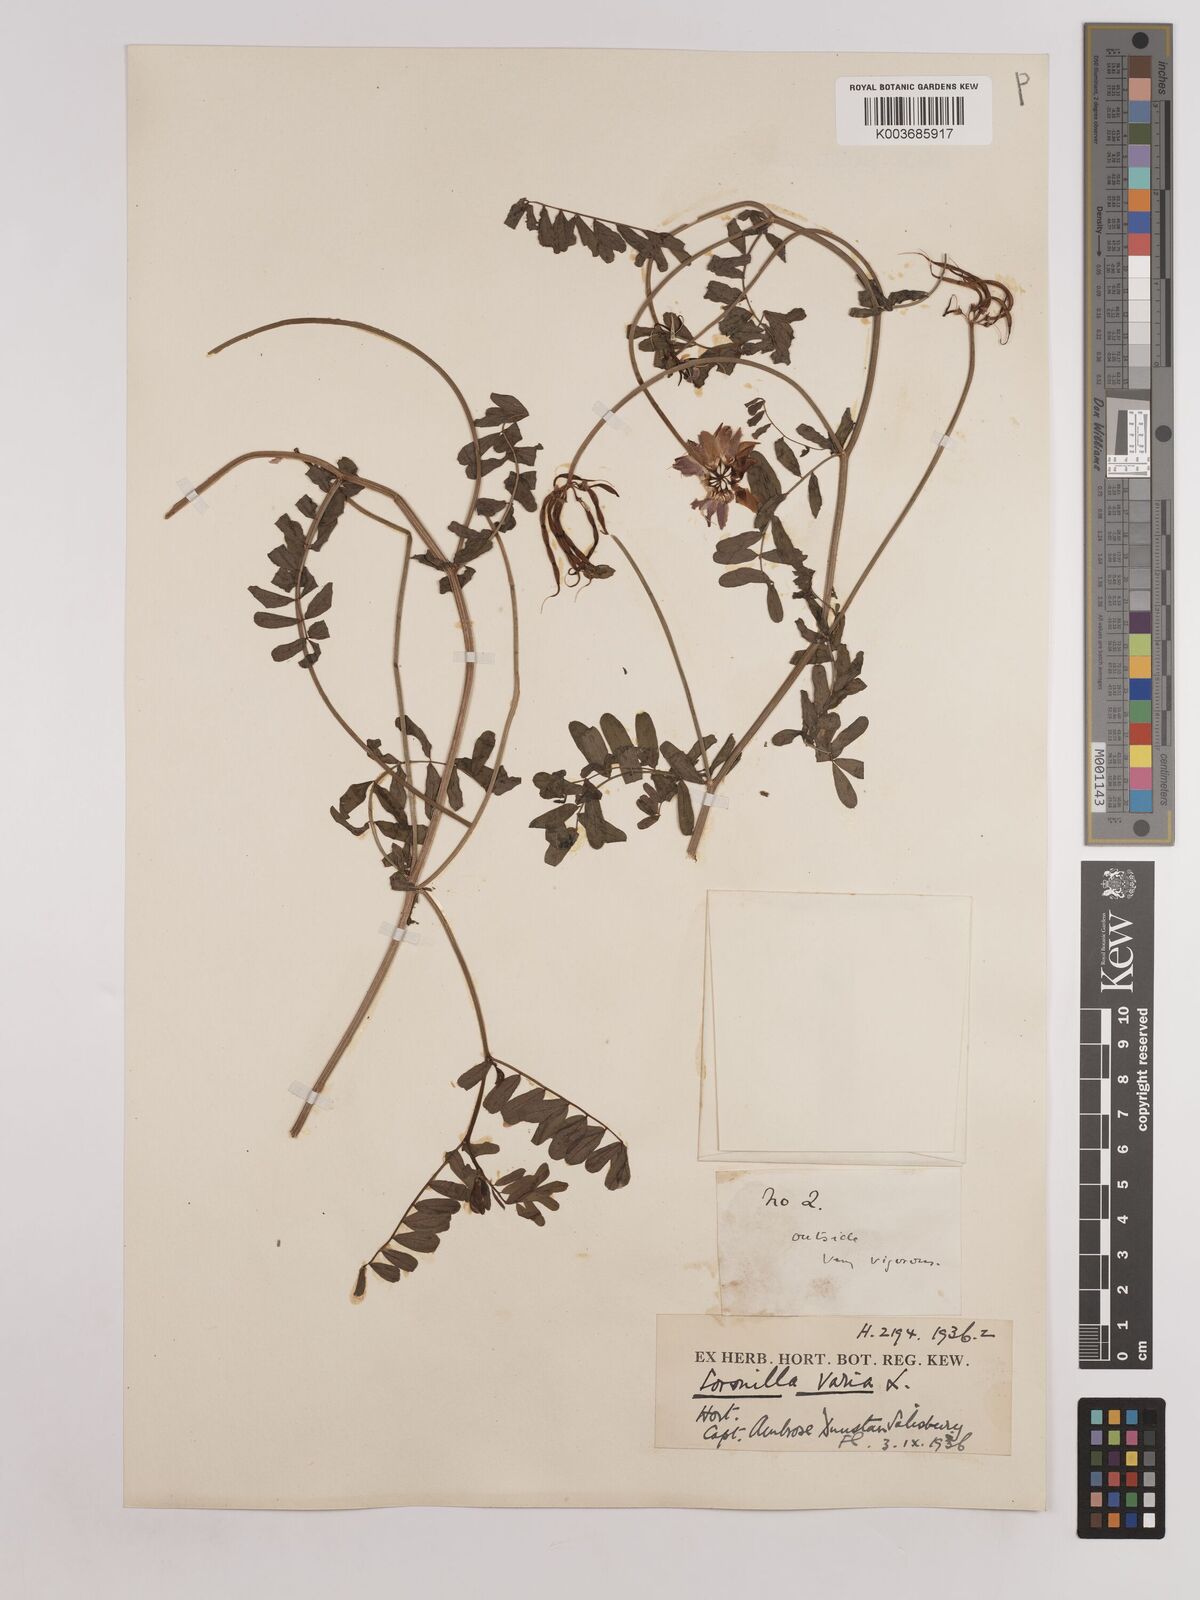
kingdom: Plantae
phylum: Tracheophyta
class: Magnoliopsida
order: Fabales
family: Fabaceae
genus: Coronilla
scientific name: Coronilla varia
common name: Crownvetch
